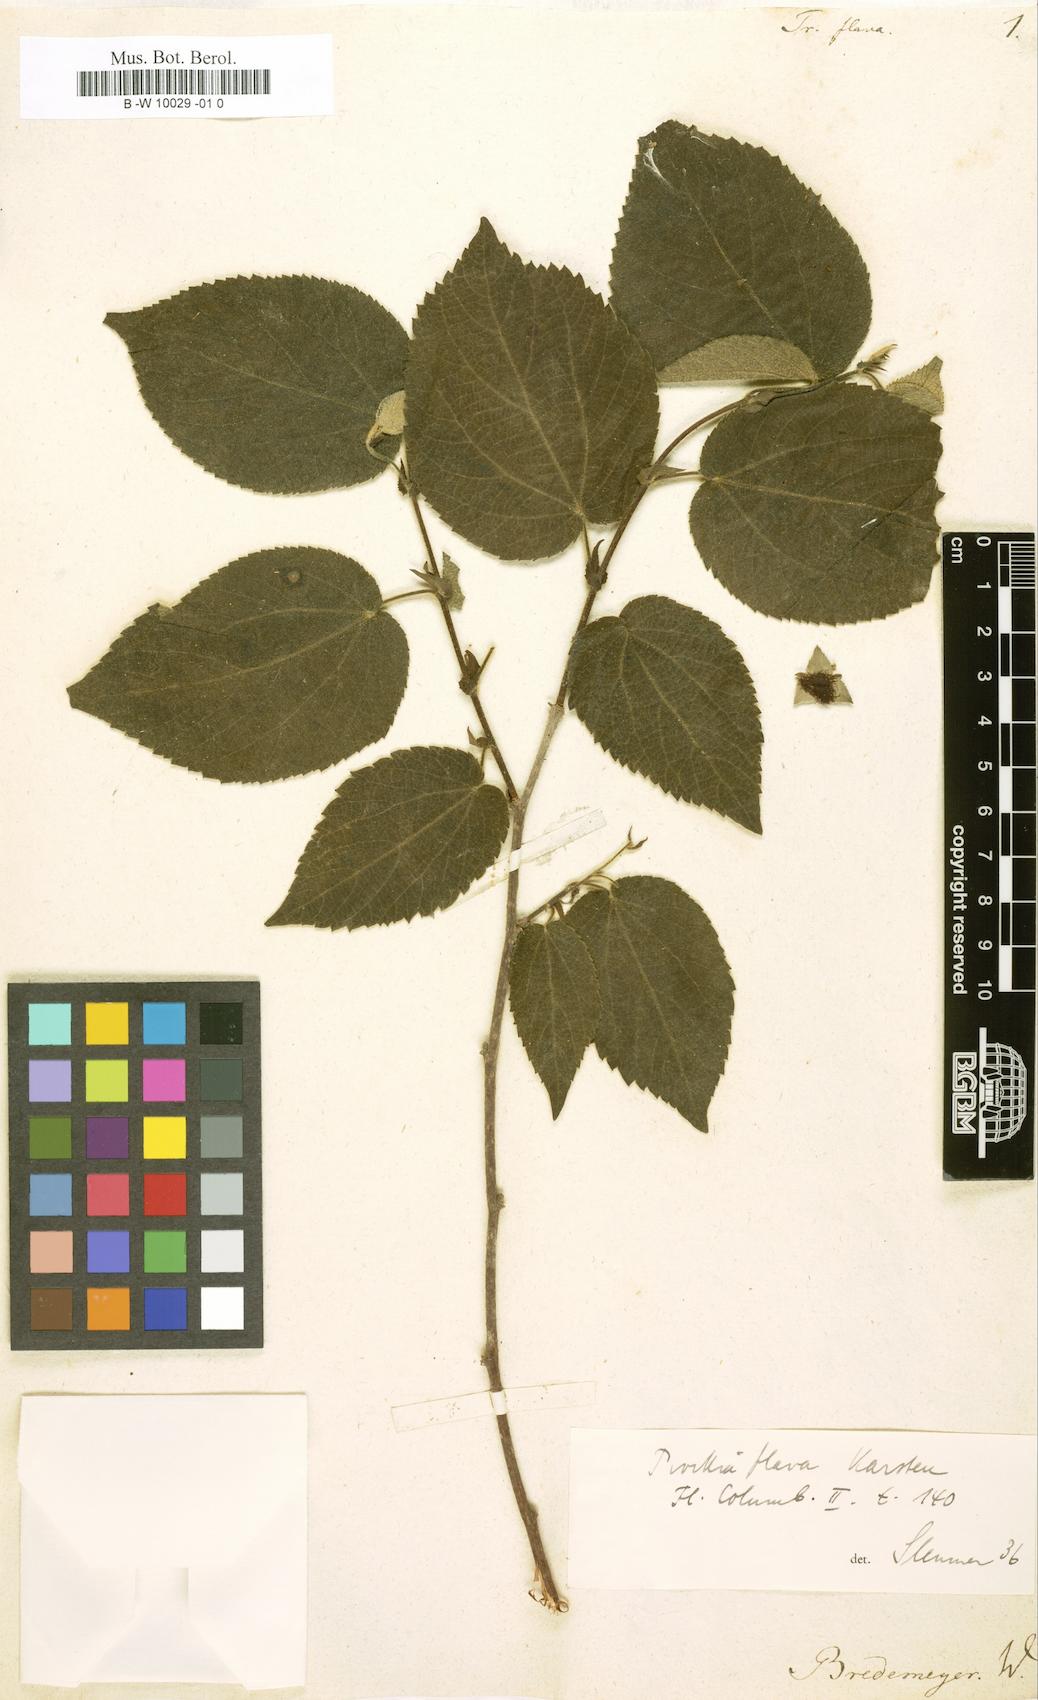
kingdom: Plantae
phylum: Tracheophyta
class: Magnoliopsida
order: Malpighiales
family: Salicaceae
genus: Prockia
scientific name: Prockia
